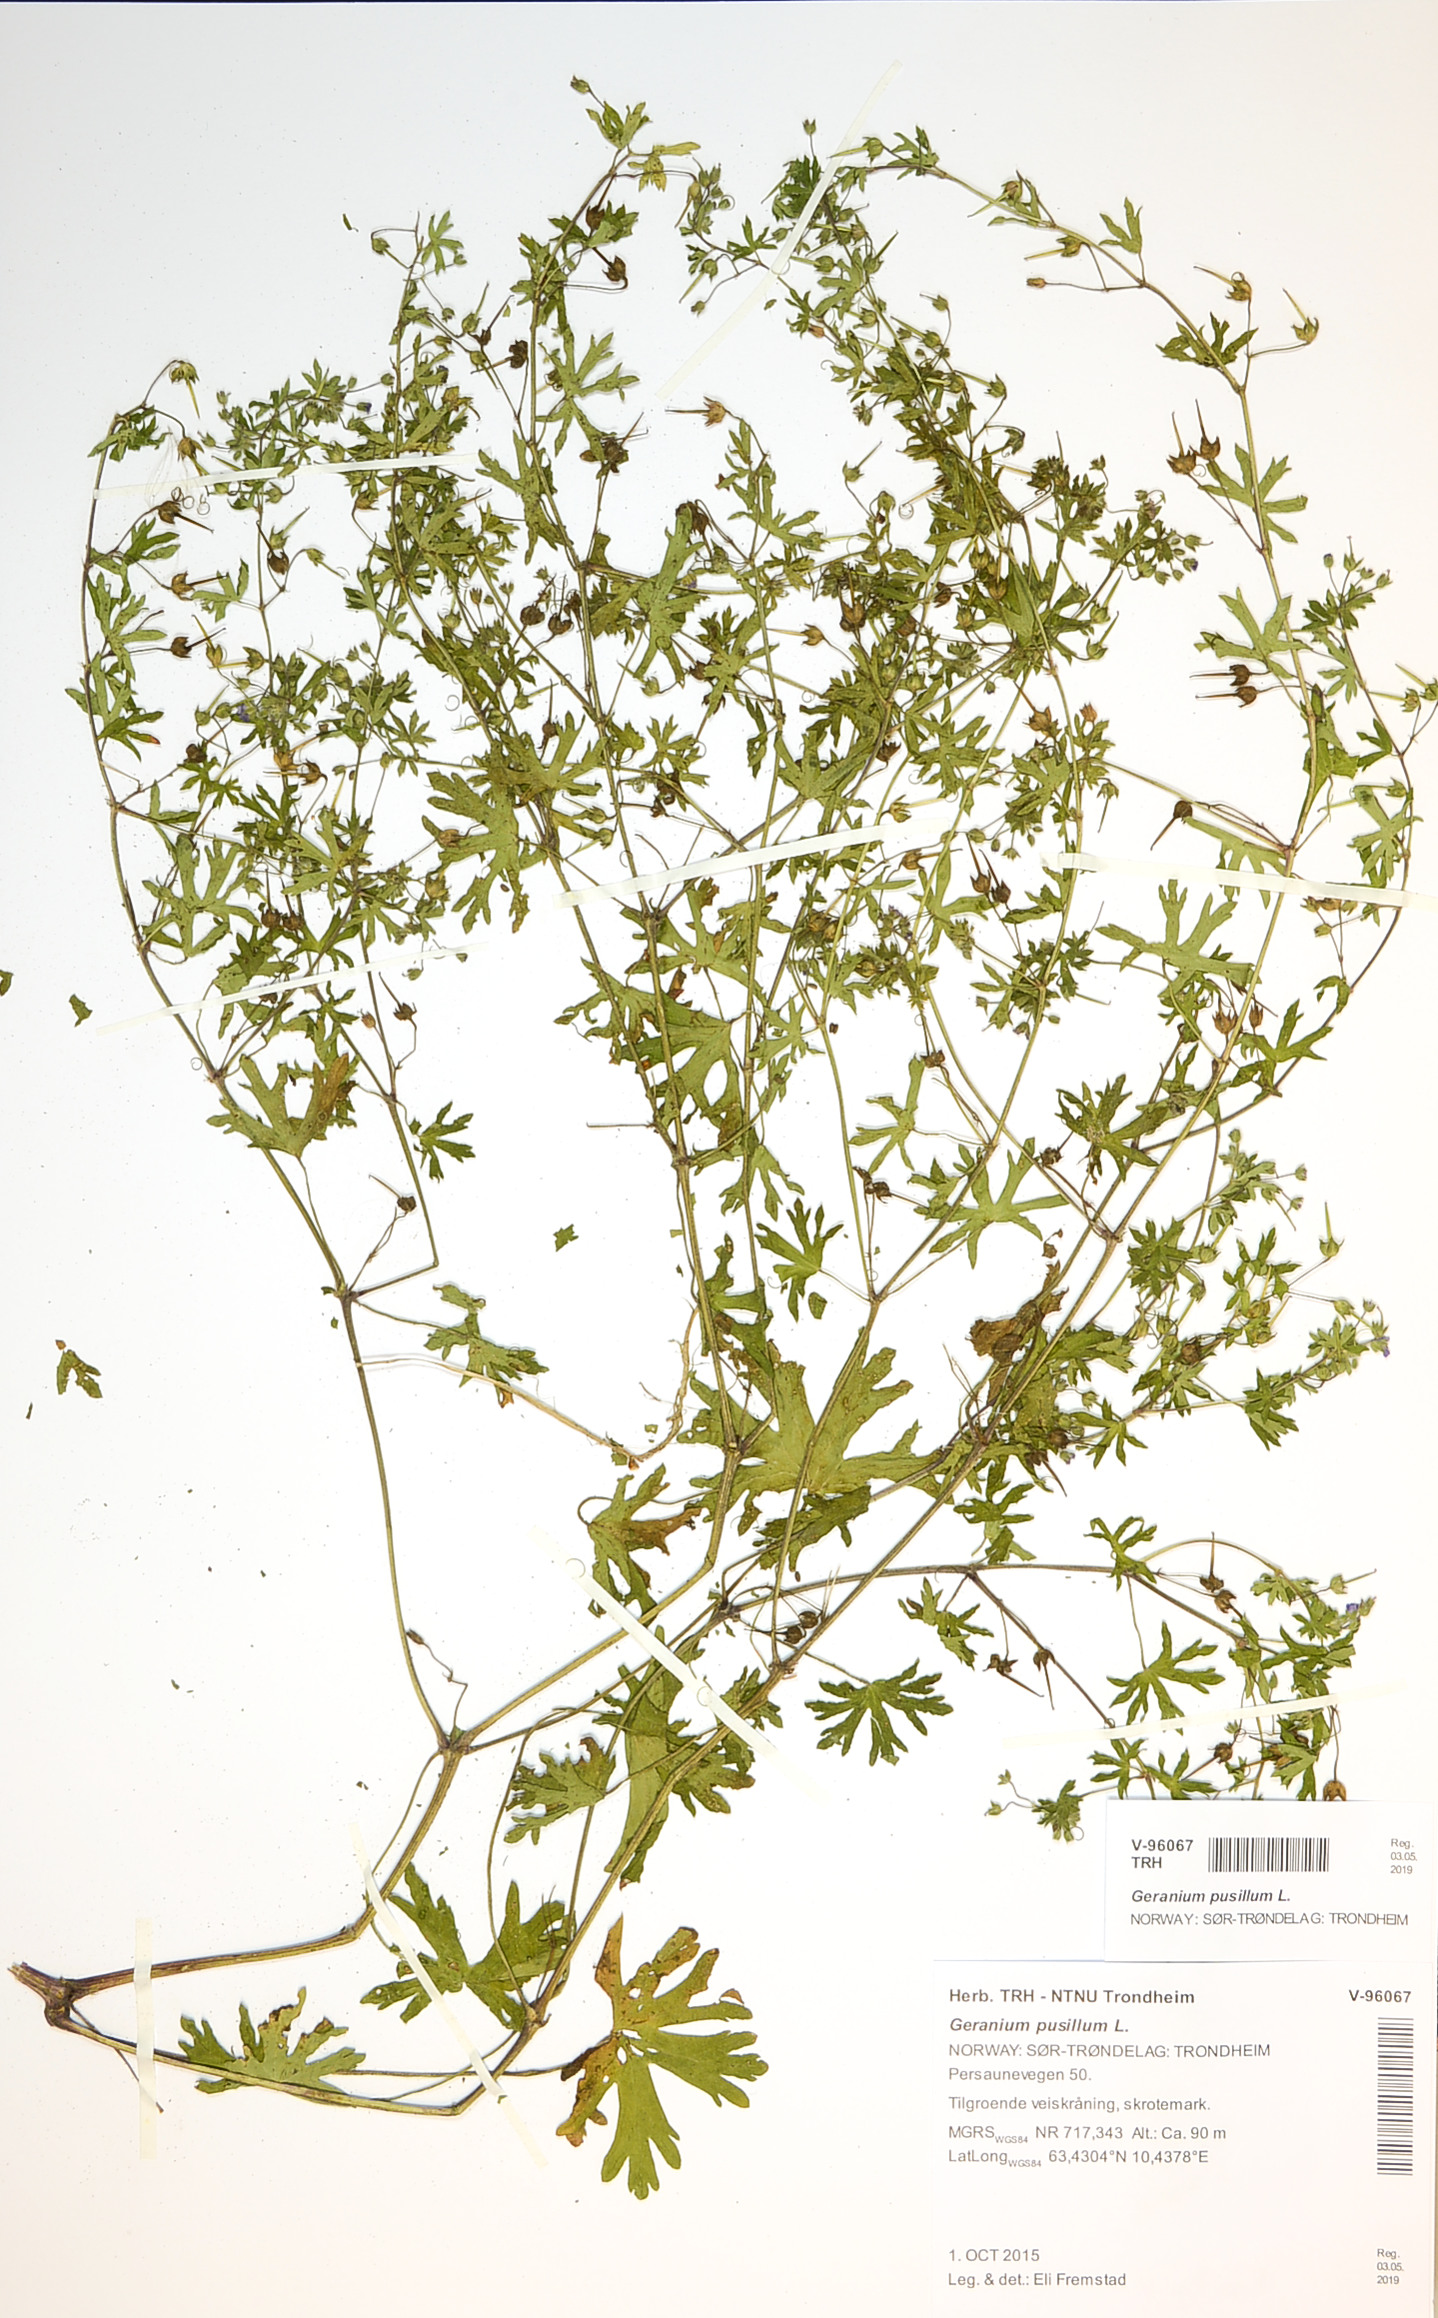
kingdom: Plantae
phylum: Tracheophyta
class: Magnoliopsida
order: Geraniales
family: Geraniaceae
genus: Geranium
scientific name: Geranium pusillum
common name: Small geranium
